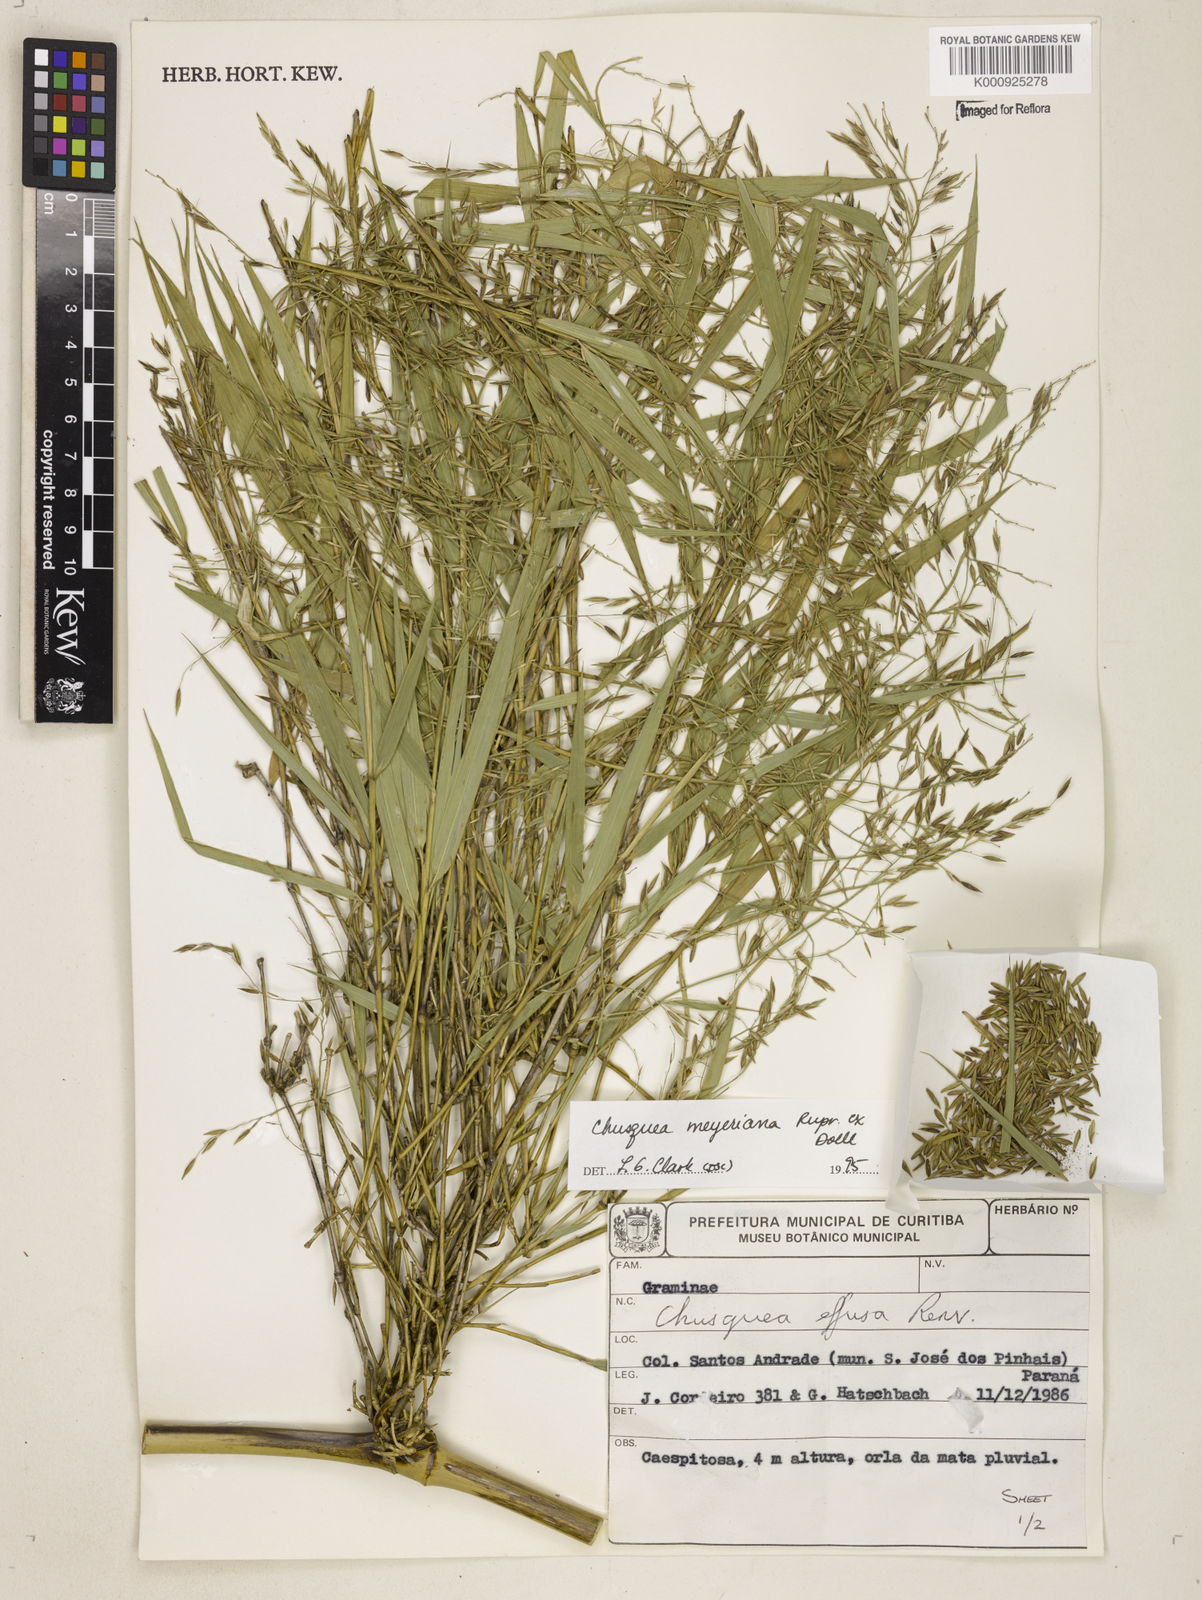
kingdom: Plantae
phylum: Tracheophyta
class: Liliopsida
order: Poales
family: Poaceae
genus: Chusquea
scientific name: Chusquea
